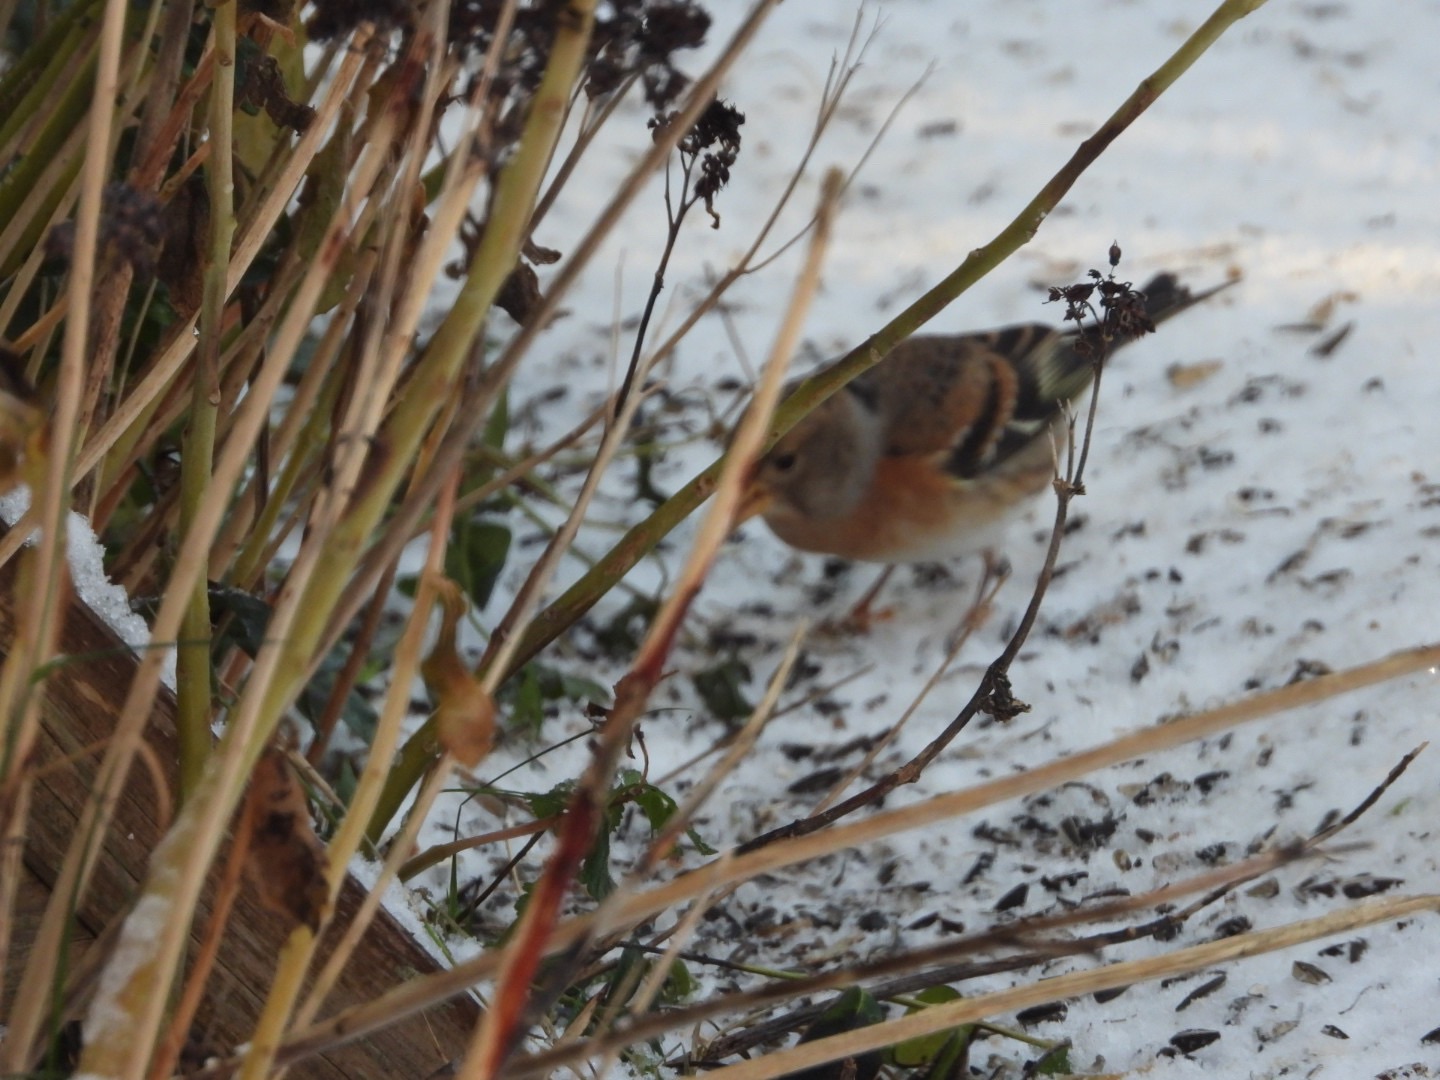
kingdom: Animalia
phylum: Chordata
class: Aves
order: Passeriformes
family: Fringillidae
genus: Fringilla
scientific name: Fringilla montifringilla
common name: Kvækerfinke
